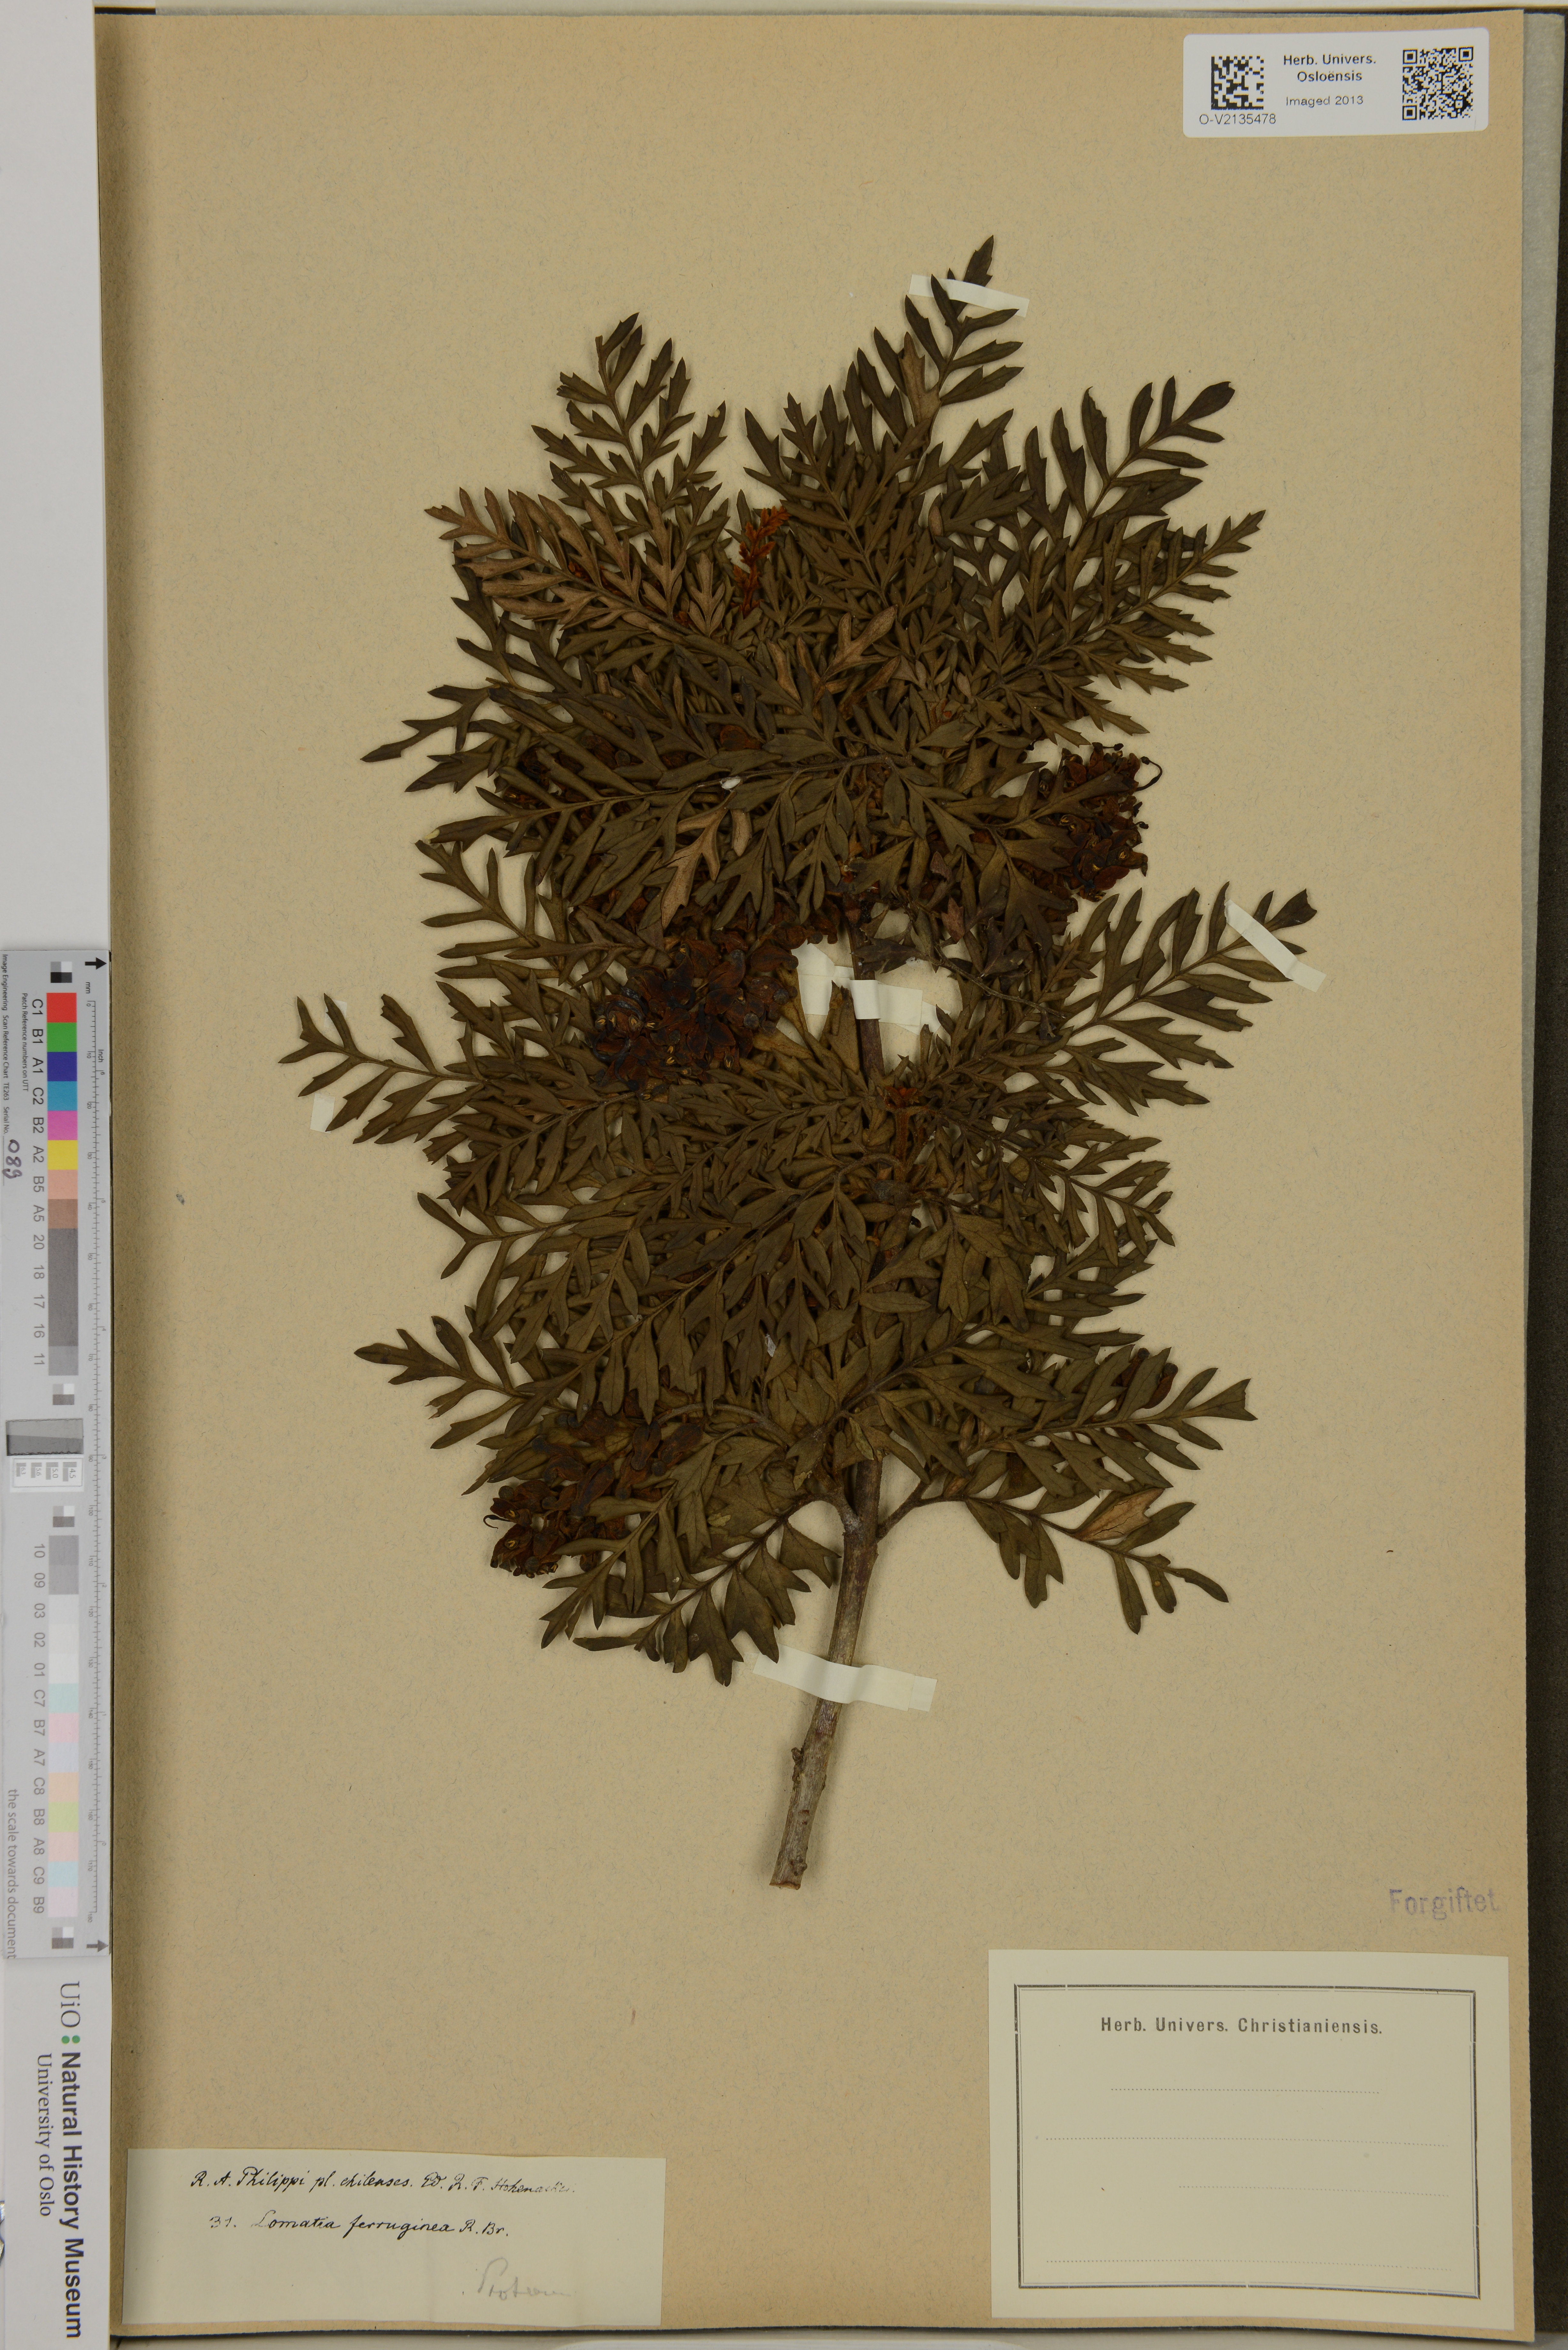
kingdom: Plantae
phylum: Tracheophyta
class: Magnoliopsida
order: Proteales
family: Proteaceae
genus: Lomatia
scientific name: Lomatia ferruginea
